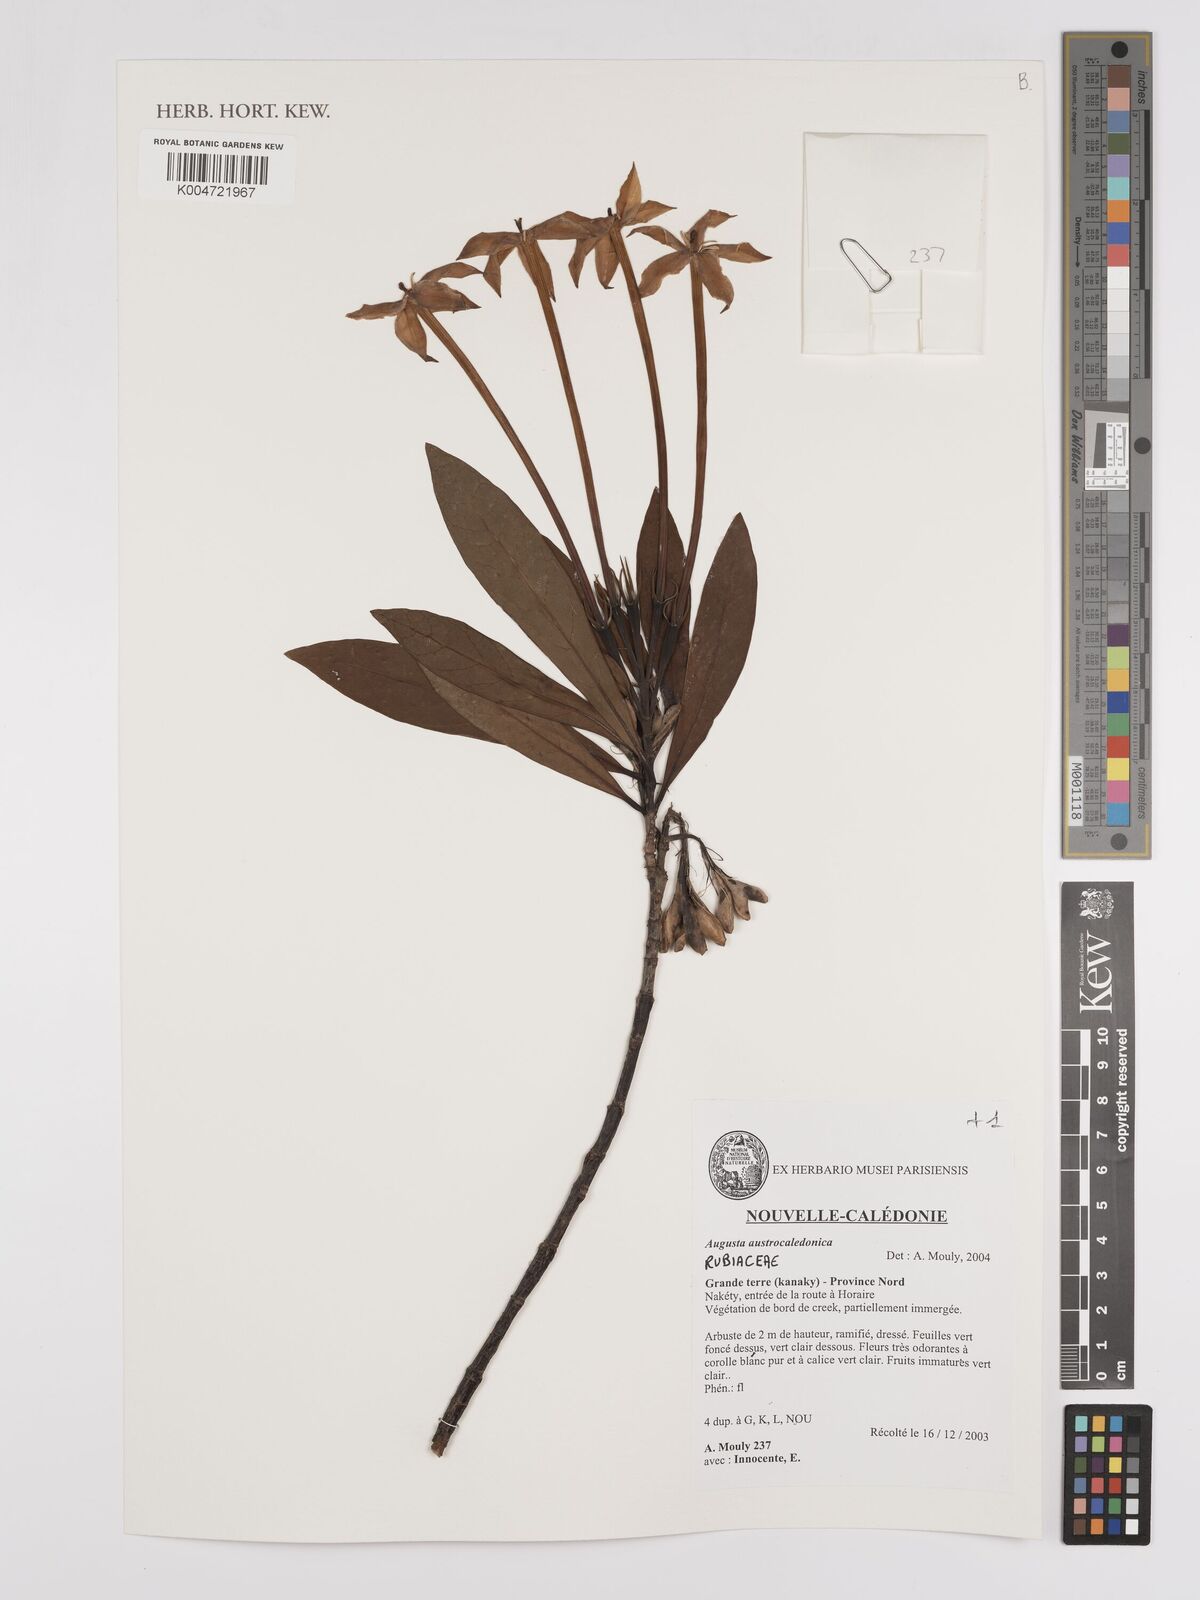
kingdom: Plantae
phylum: Tracheophyta
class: Magnoliopsida
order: Gentianales
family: Rubiaceae
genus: Augusta
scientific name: Augusta austrocaledonica
